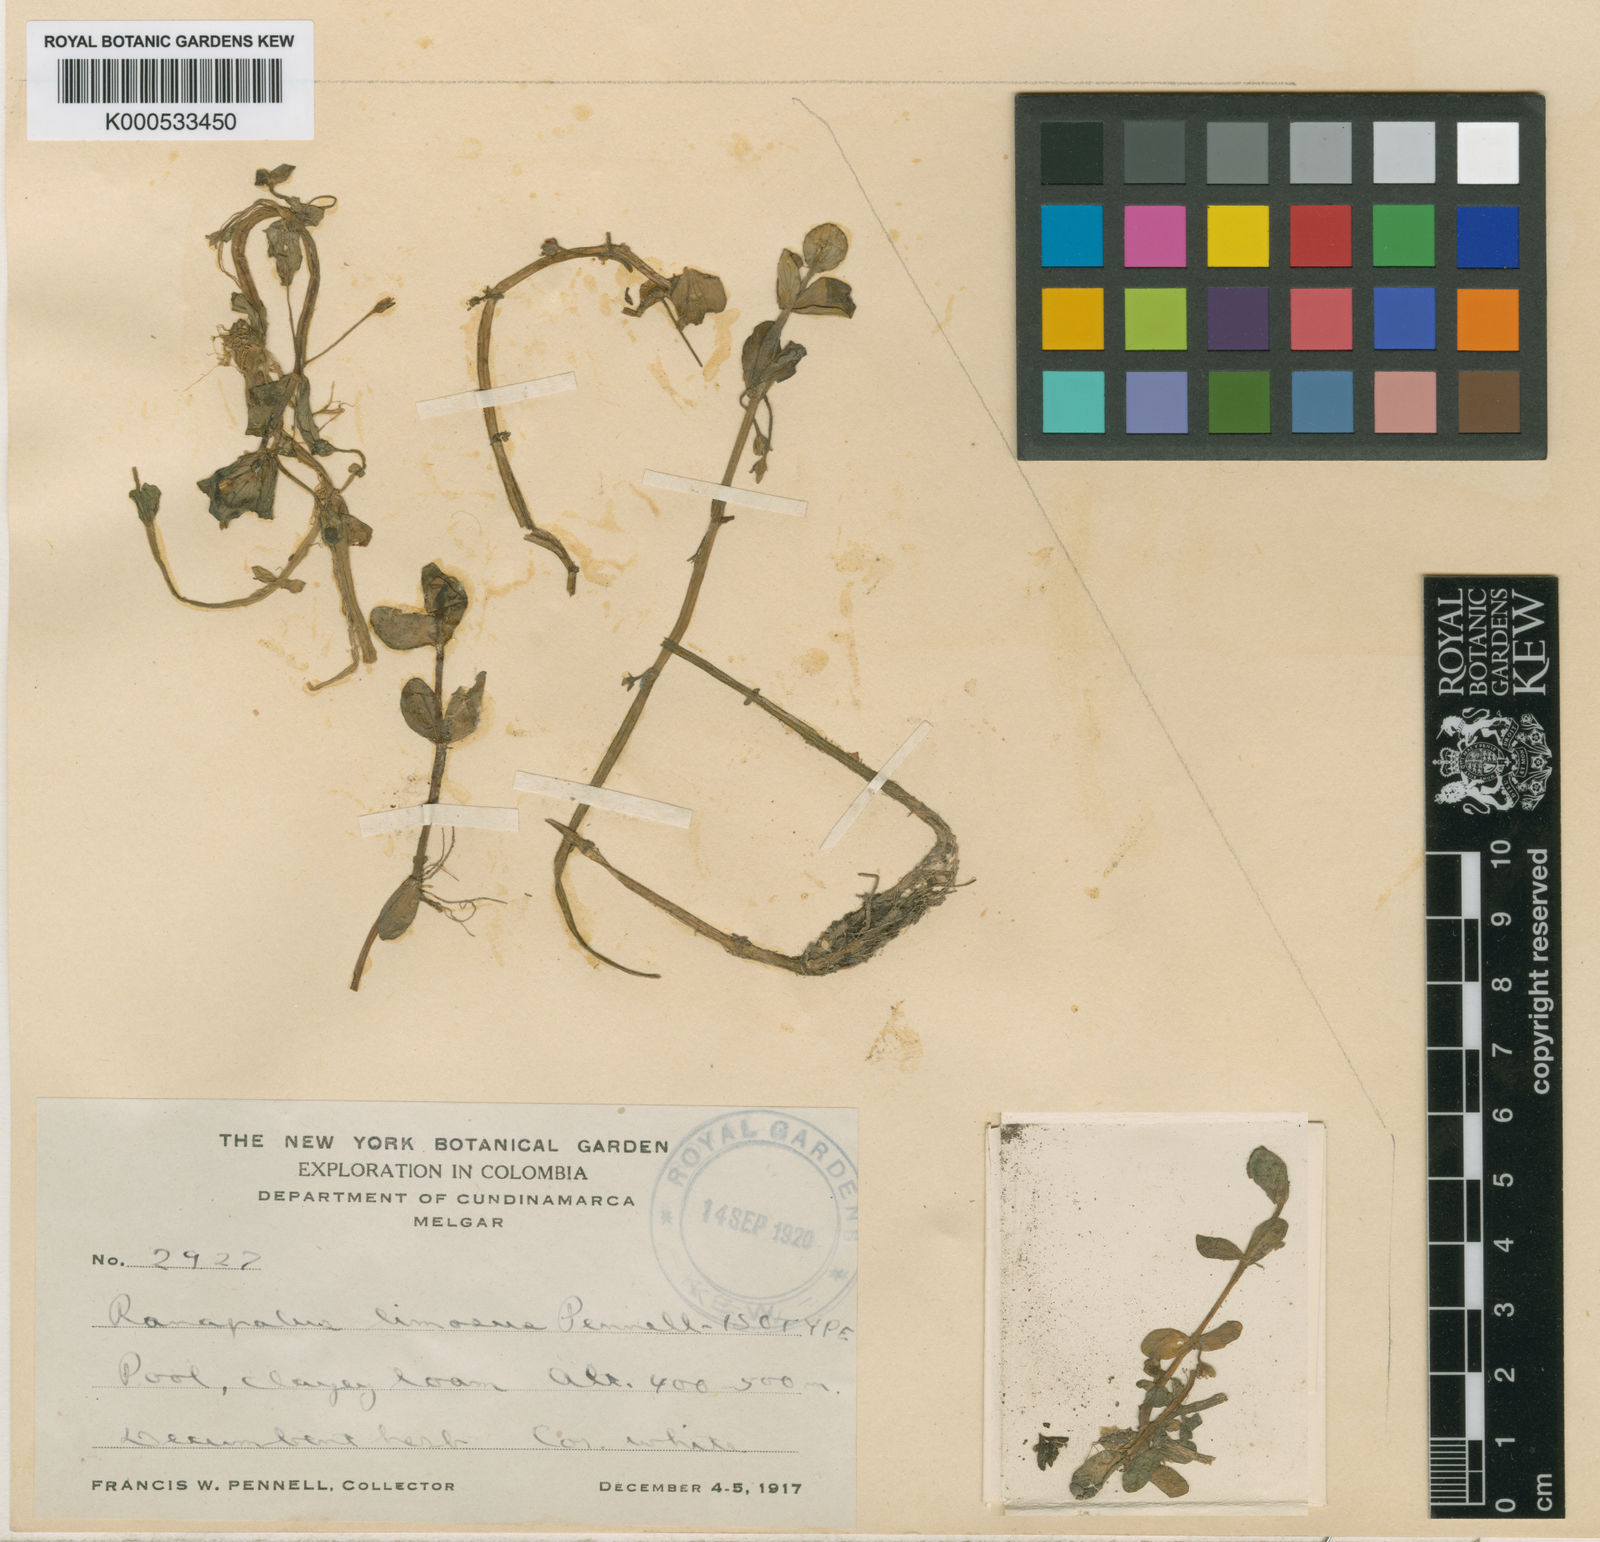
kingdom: Plantae
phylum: Tracheophyta
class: Magnoliopsida
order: Lamiales
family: Plantaginaceae
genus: Bacopa
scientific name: Bacopa rotundifolia
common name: Disc water hyssop
